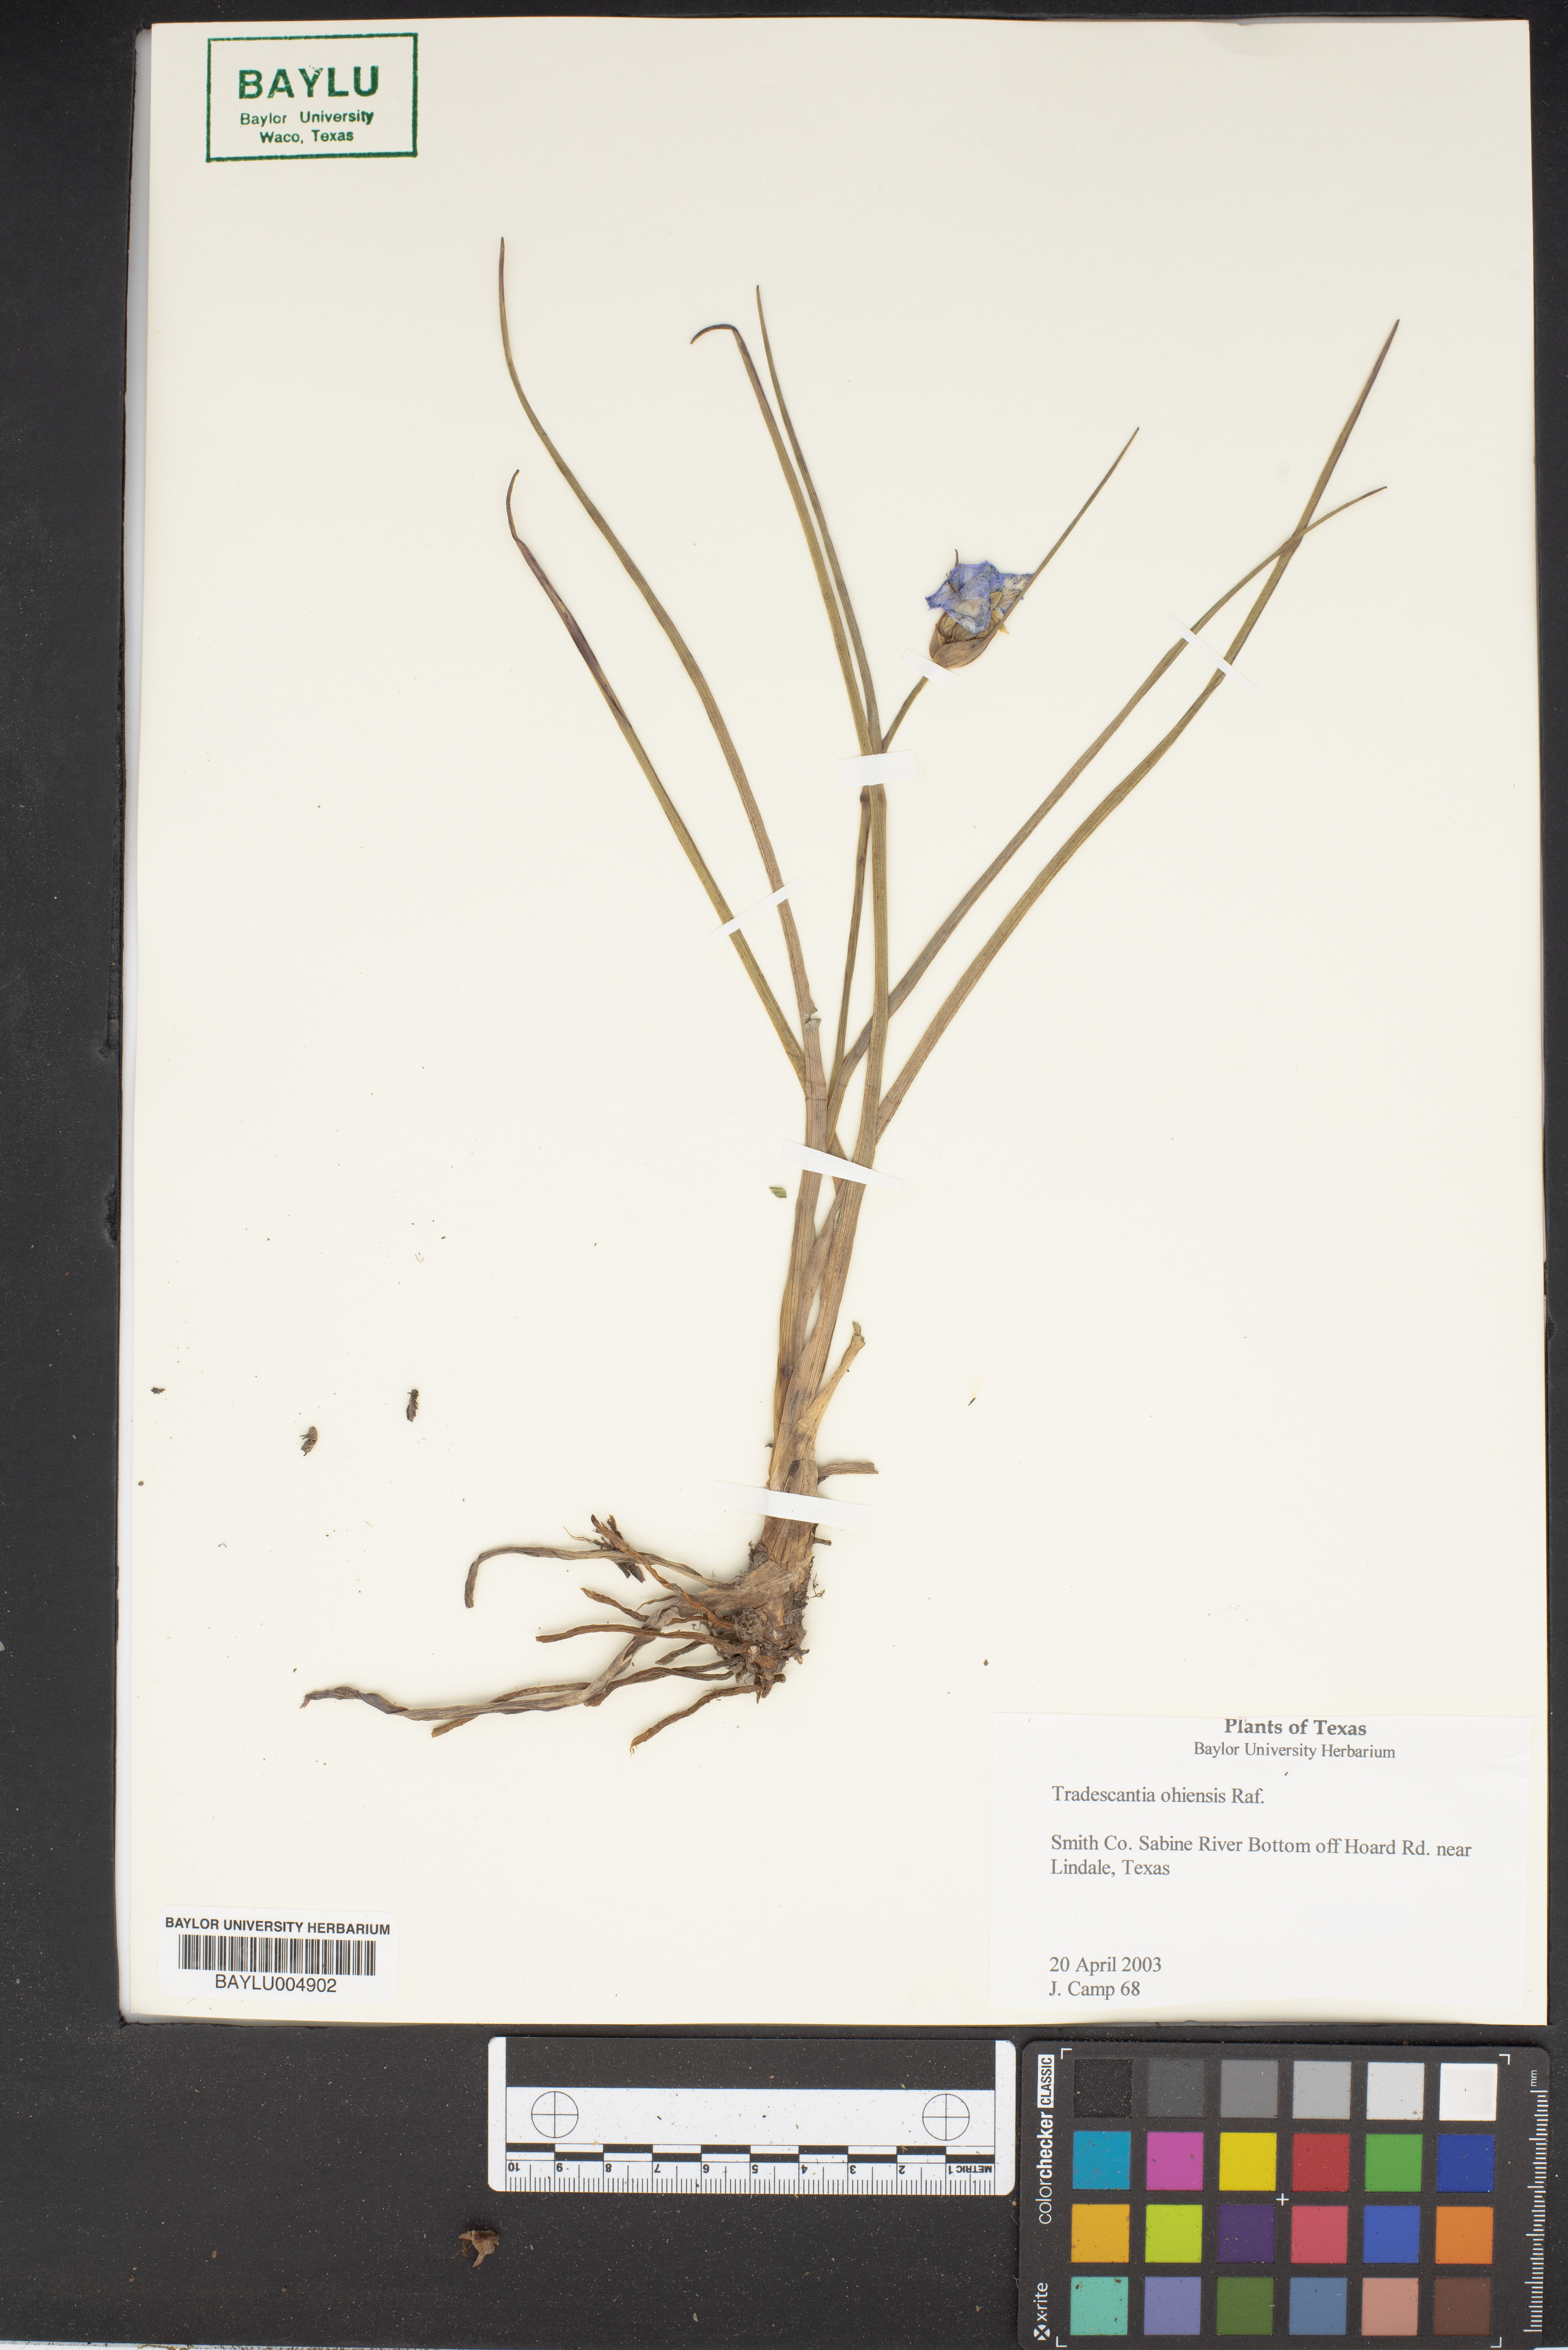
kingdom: Plantae
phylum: Tracheophyta
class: Liliopsida
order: Commelinales
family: Commelinaceae
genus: Tradescantia
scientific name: Tradescantia ohiensis
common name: Ohio spiderwort
